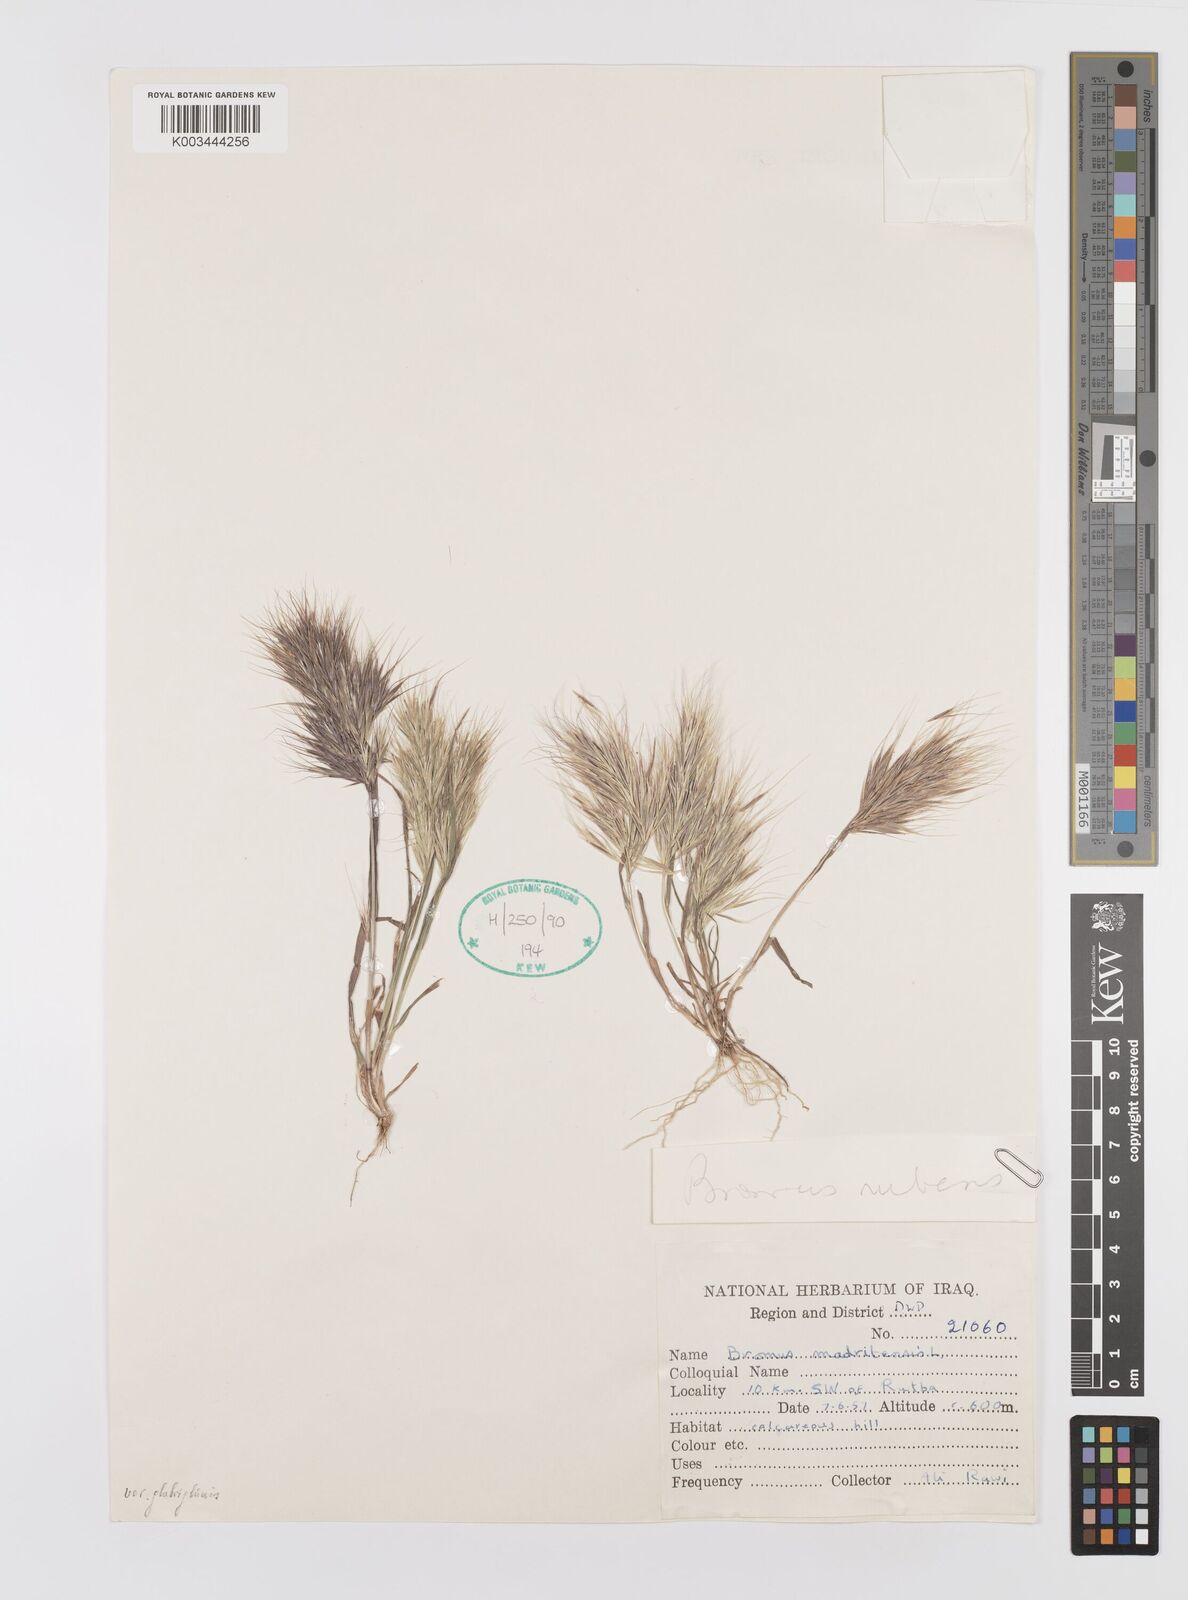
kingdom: Plantae
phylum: Tracheophyta
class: Liliopsida
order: Poales
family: Poaceae
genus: Bromus
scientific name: Bromus madritensis
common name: Compact brome
